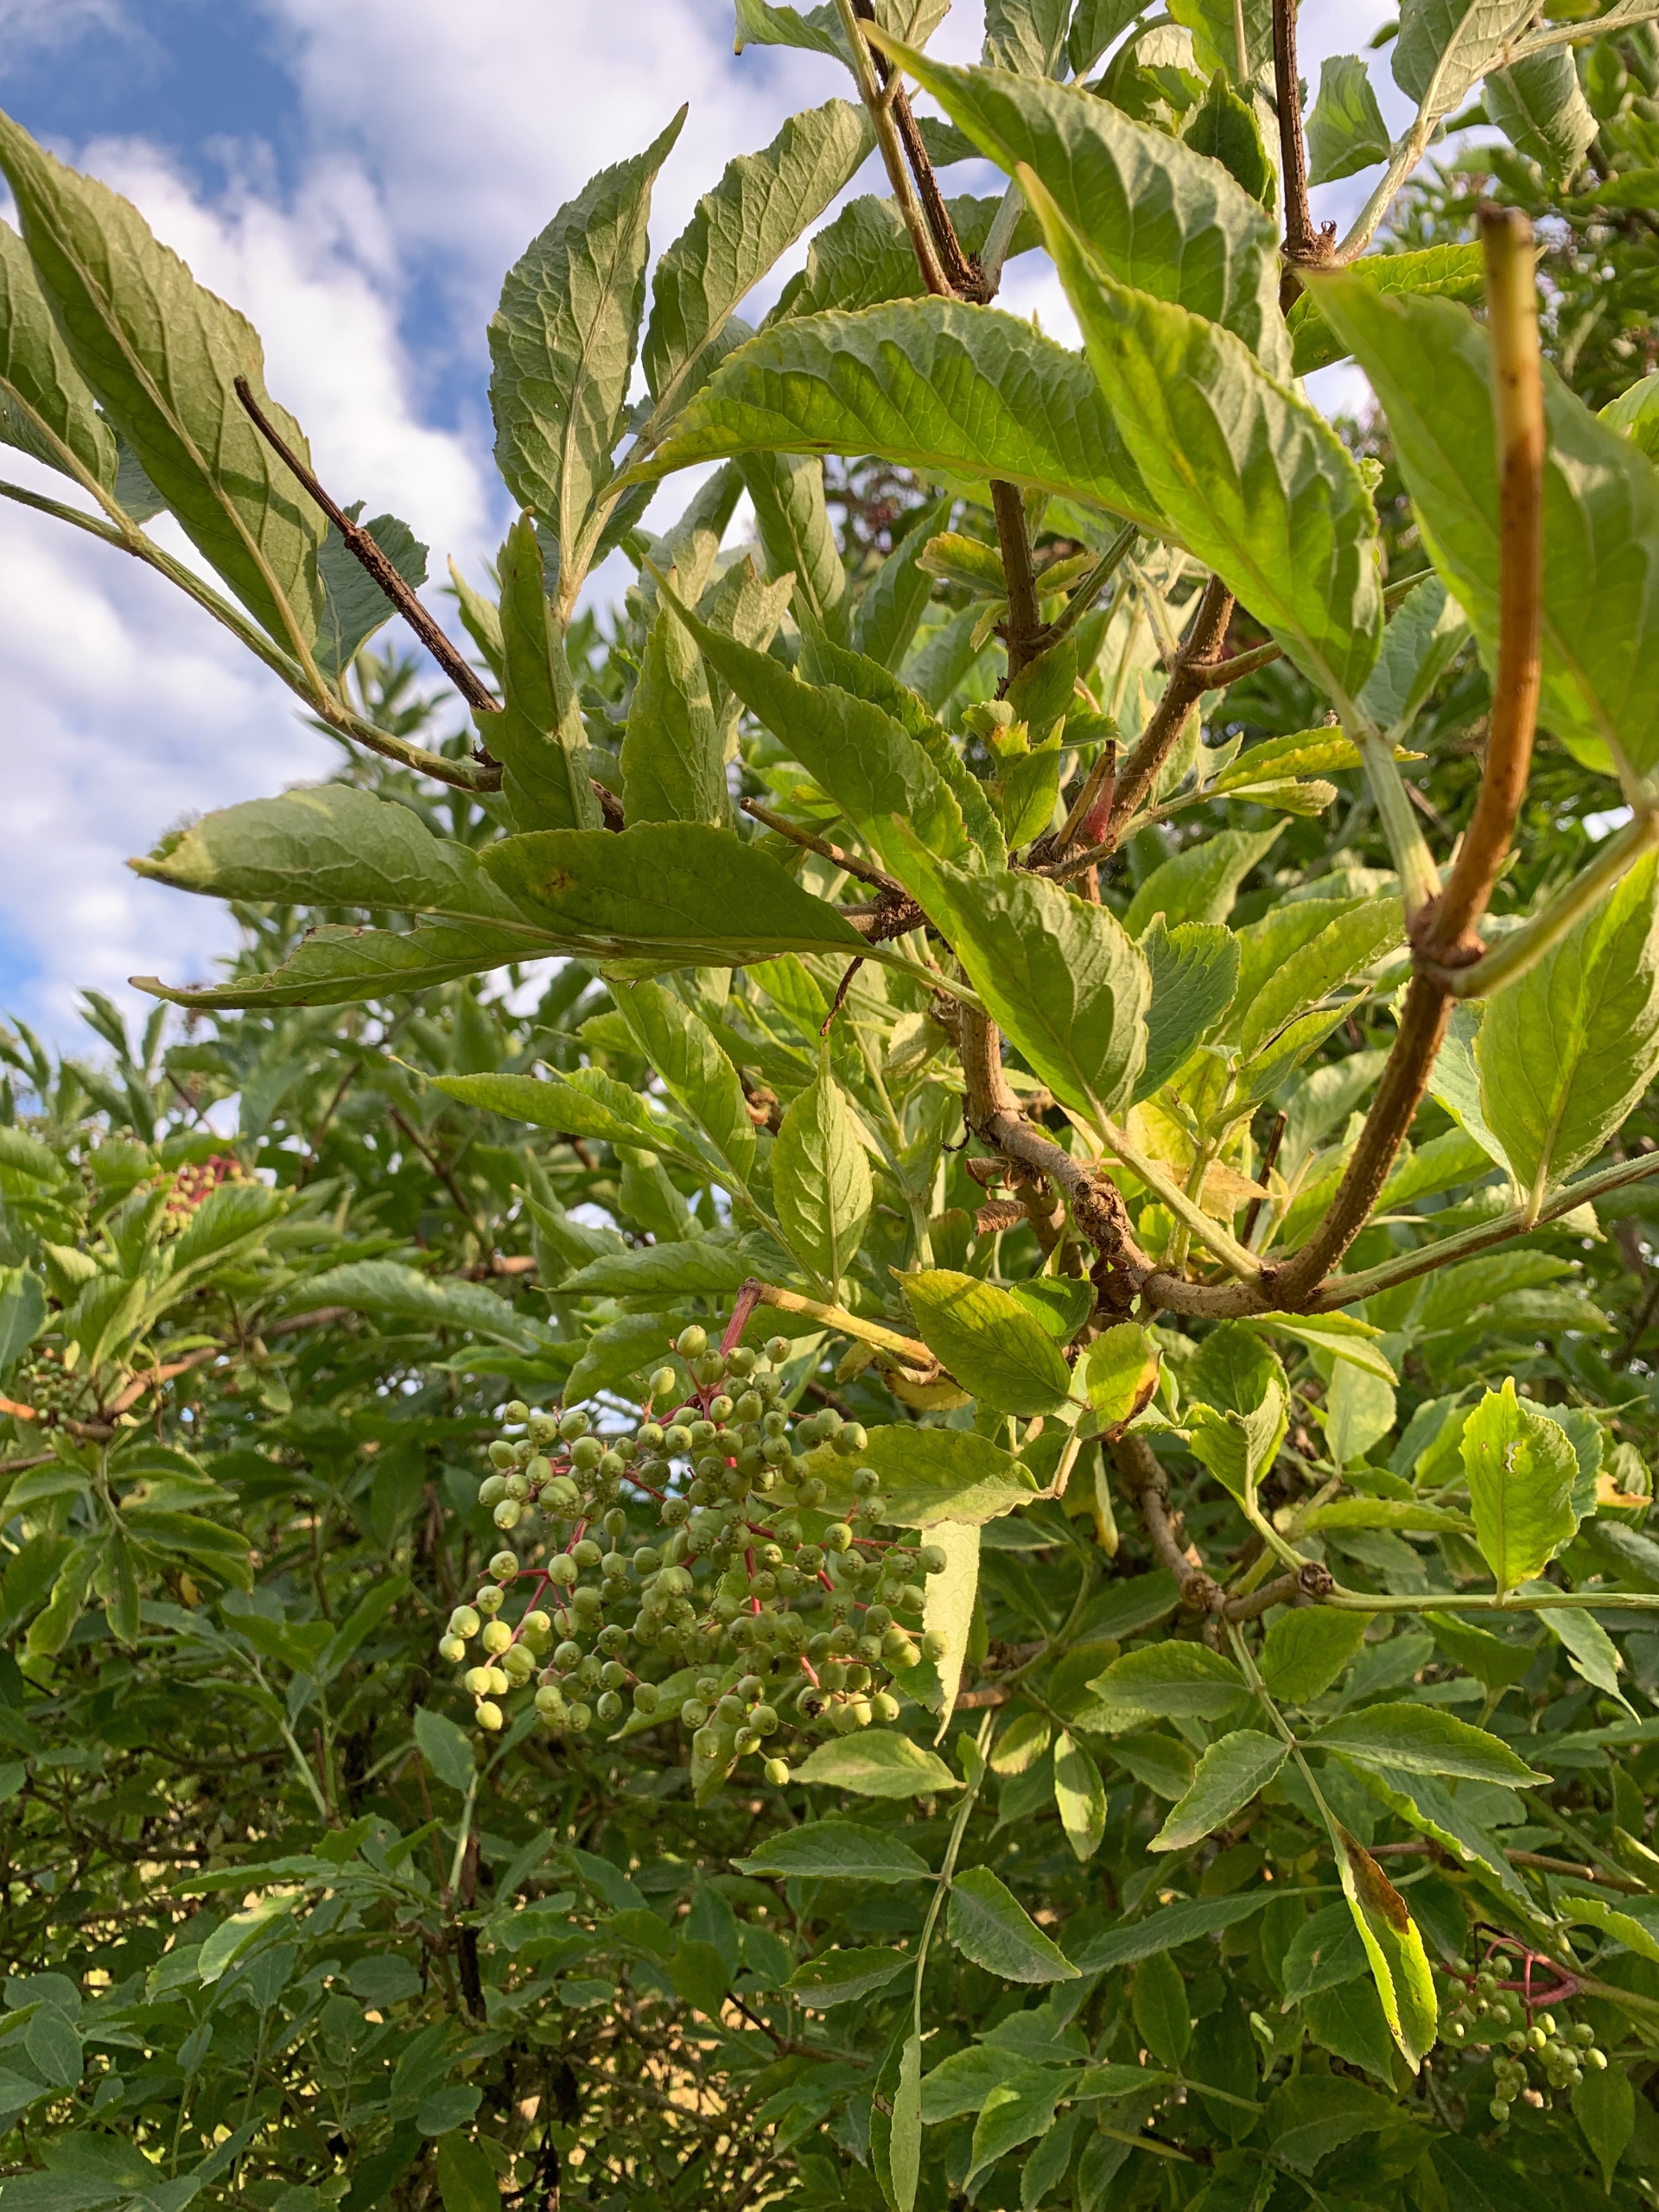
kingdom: Plantae
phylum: Tracheophyta
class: Magnoliopsida
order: Dipsacales
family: Viburnaceae
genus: Sambucus
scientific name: Sambucus nigra
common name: Almindelig hyld
